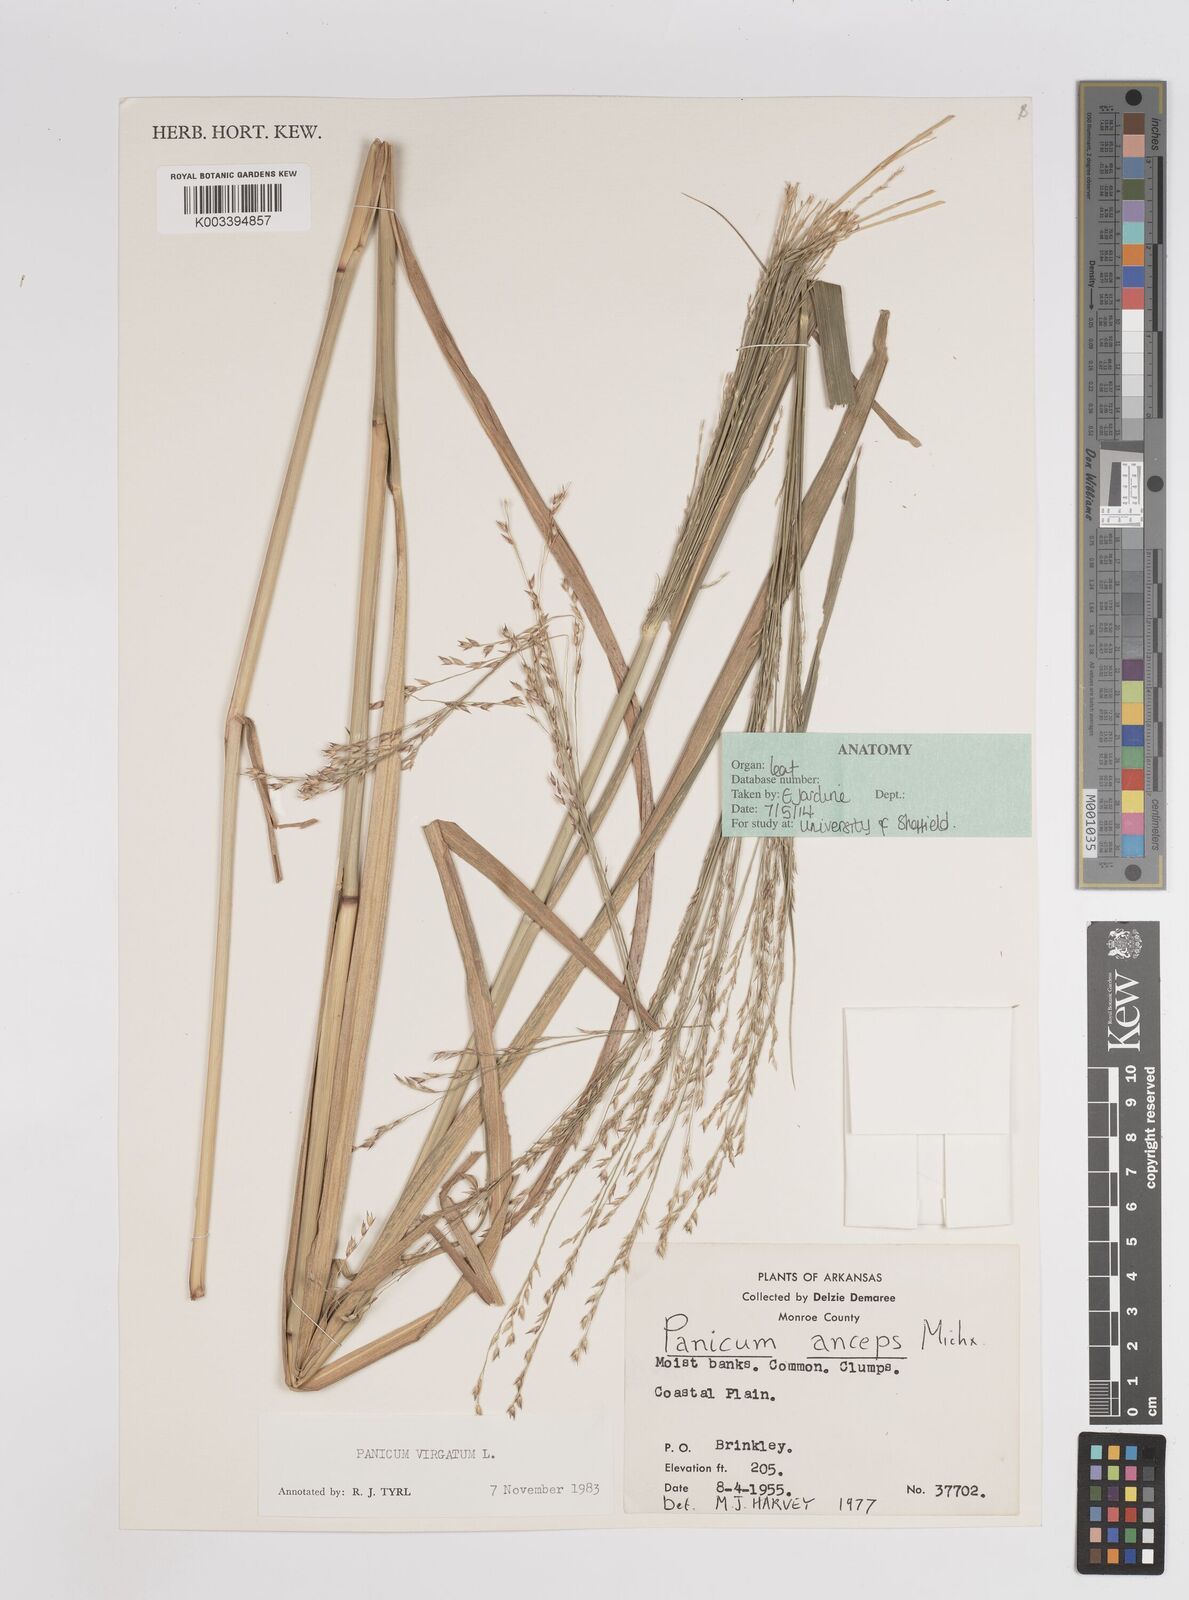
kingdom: Plantae
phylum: Tracheophyta
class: Liliopsida
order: Poales
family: Poaceae
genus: Panicum
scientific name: Panicum virgatum
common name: Switchgrass
